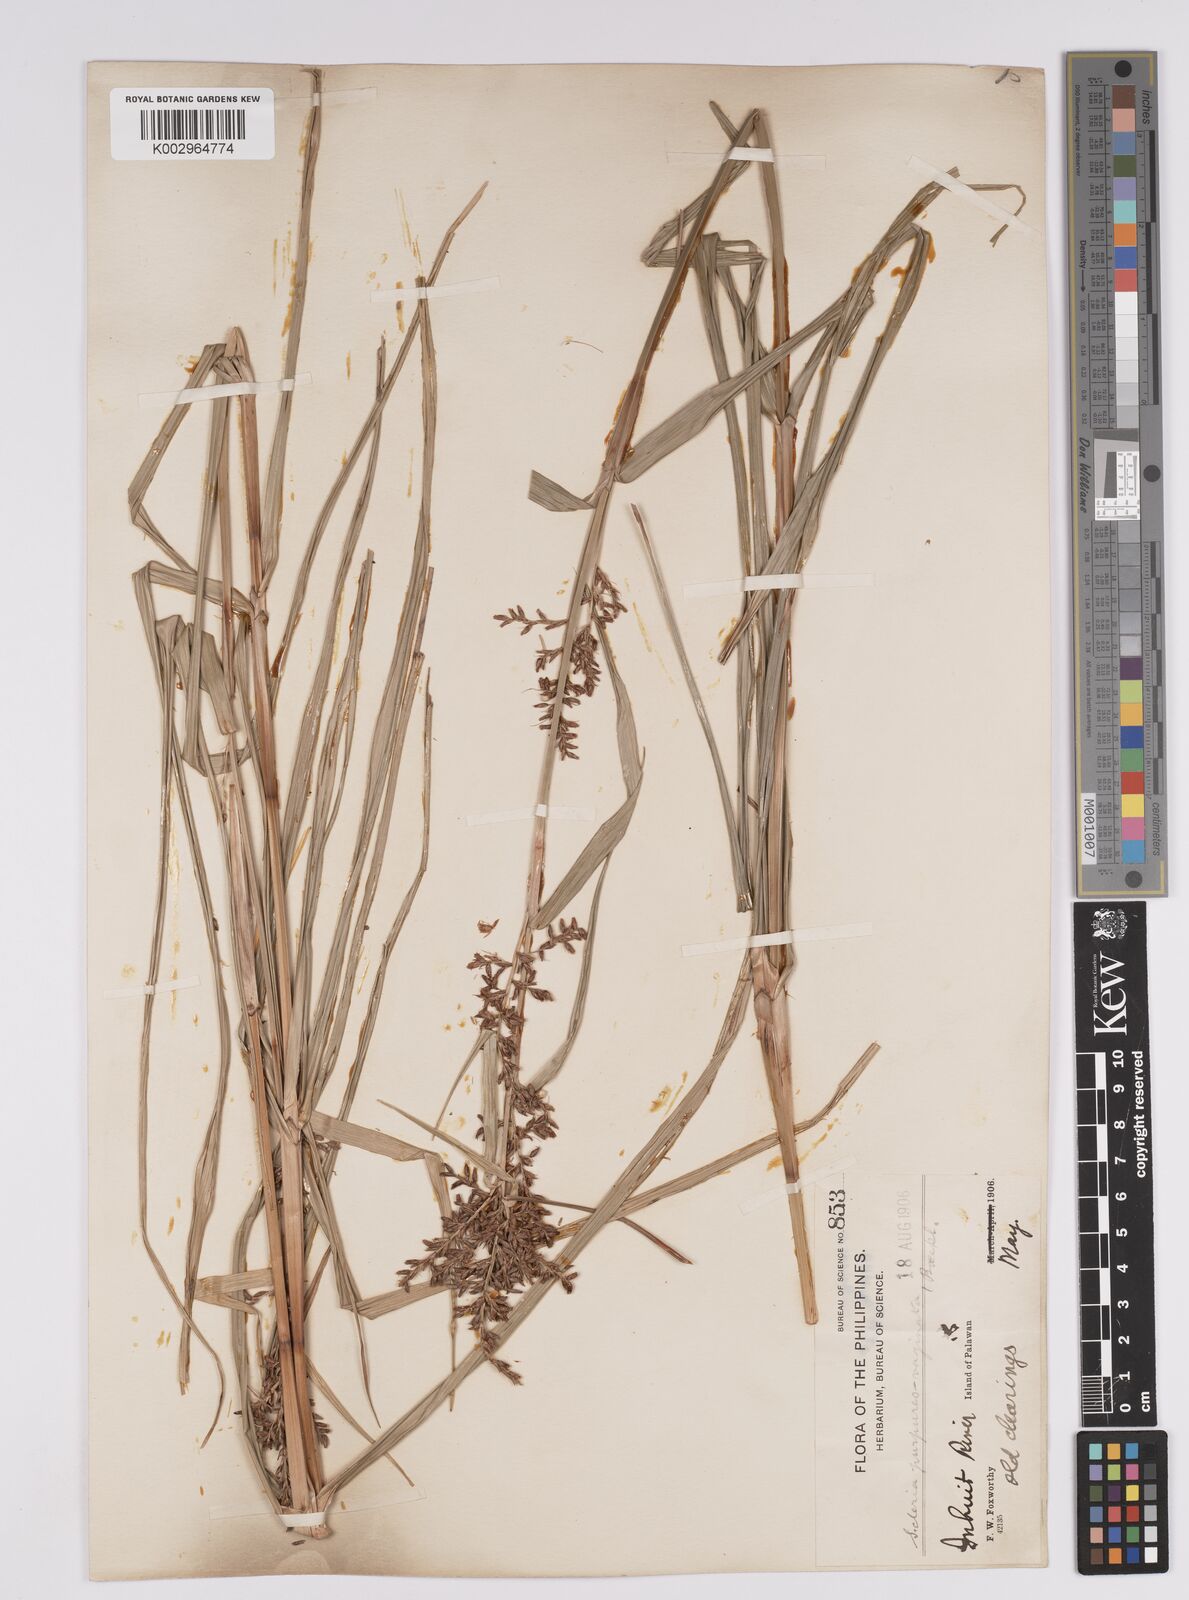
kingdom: Plantae
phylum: Tracheophyta
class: Liliopsida
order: Poales
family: Cyperaceae
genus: Scleria
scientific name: Scleria scrobiculata
